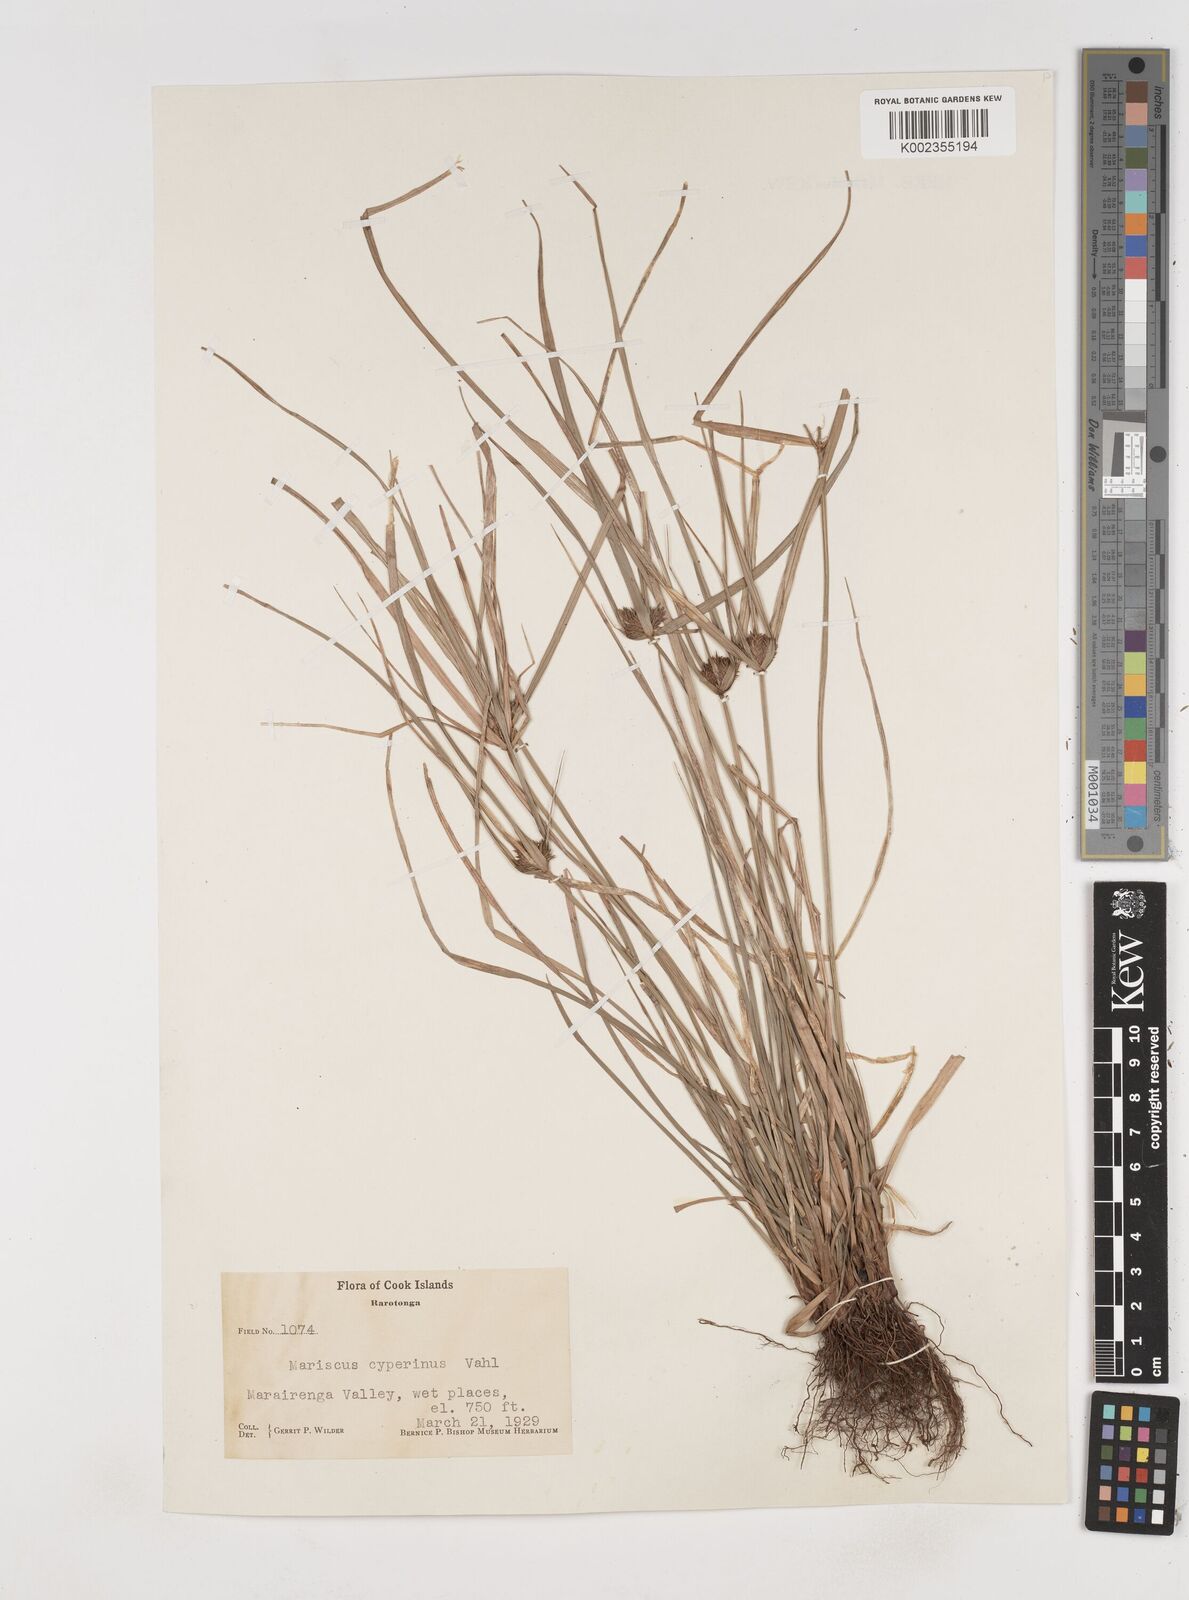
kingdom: Plantae
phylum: Tracheophyta
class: Liliopsida
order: Poales
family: Cyperaceae
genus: Cyperus
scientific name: Cyperus cyperinus
